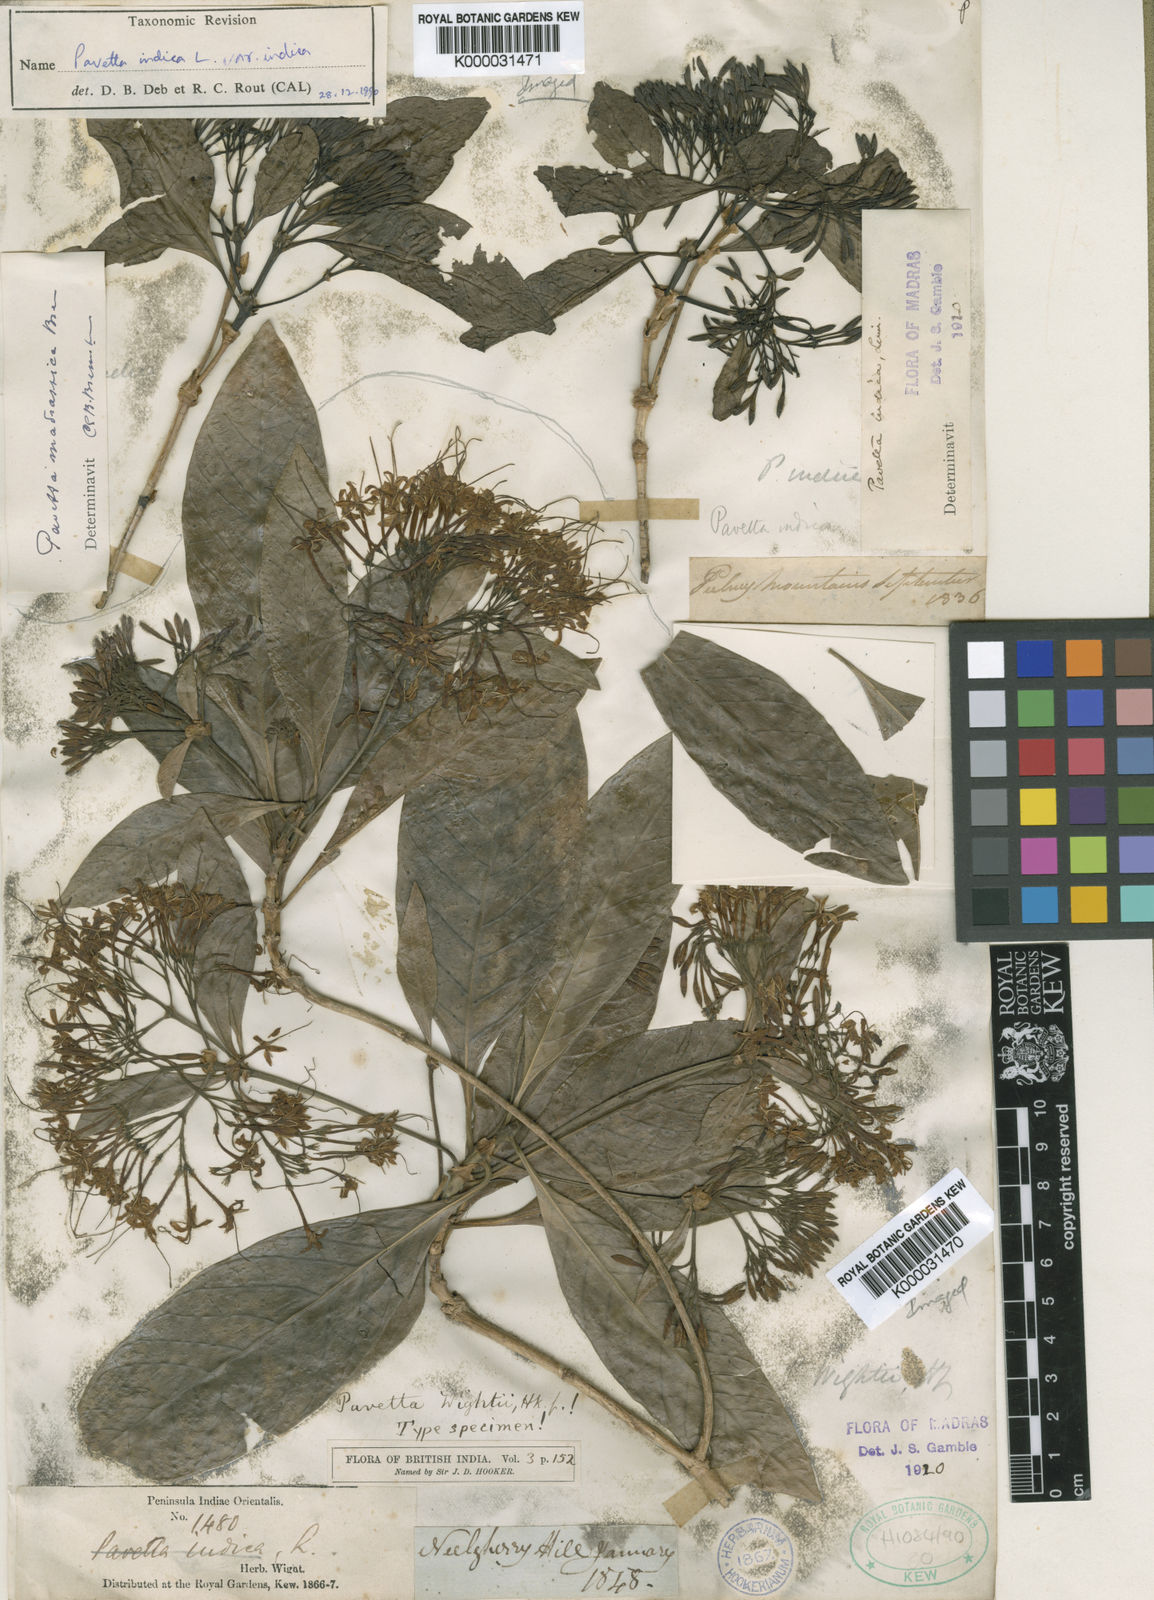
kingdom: Plantae
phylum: Tracheophyta
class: Magnoliopsida
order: Gentianales
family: Rubiaceae
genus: Pavetta
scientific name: Pavetta indica
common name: Indian pavetta
